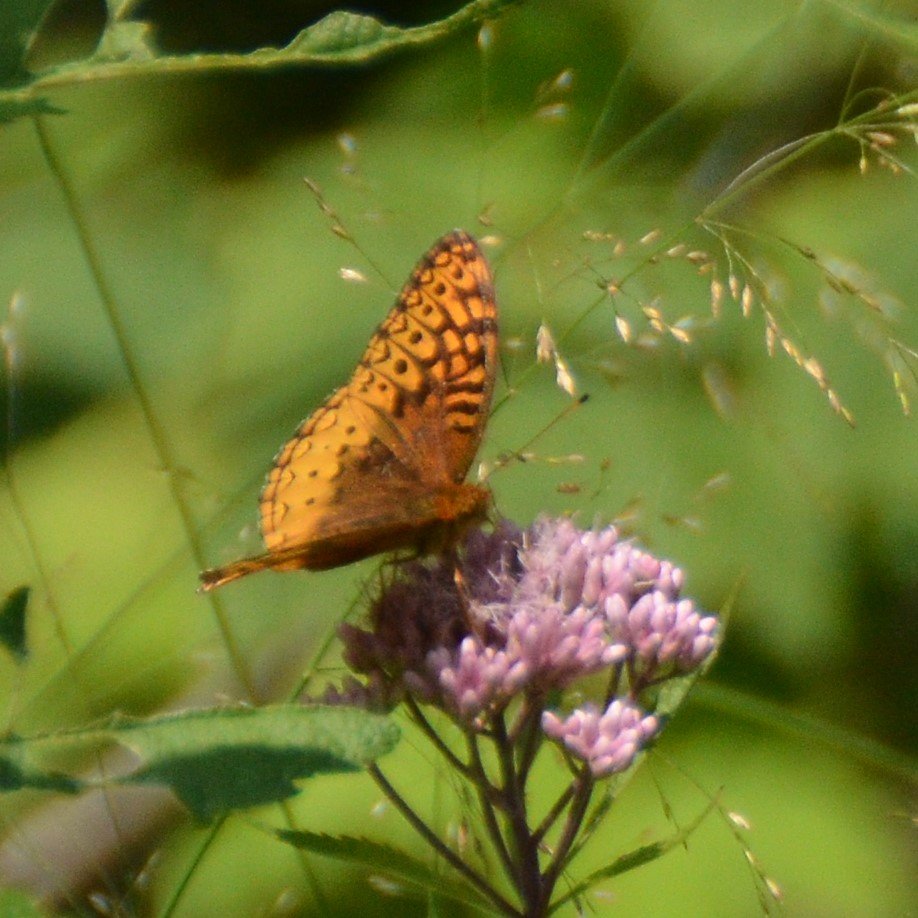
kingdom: Animalia
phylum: Arthropoda
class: Insecta
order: Lepidoptera
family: Nymphalidae
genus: Speyeria
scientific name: Speyeria cybele
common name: Great Spangled Fritillary
